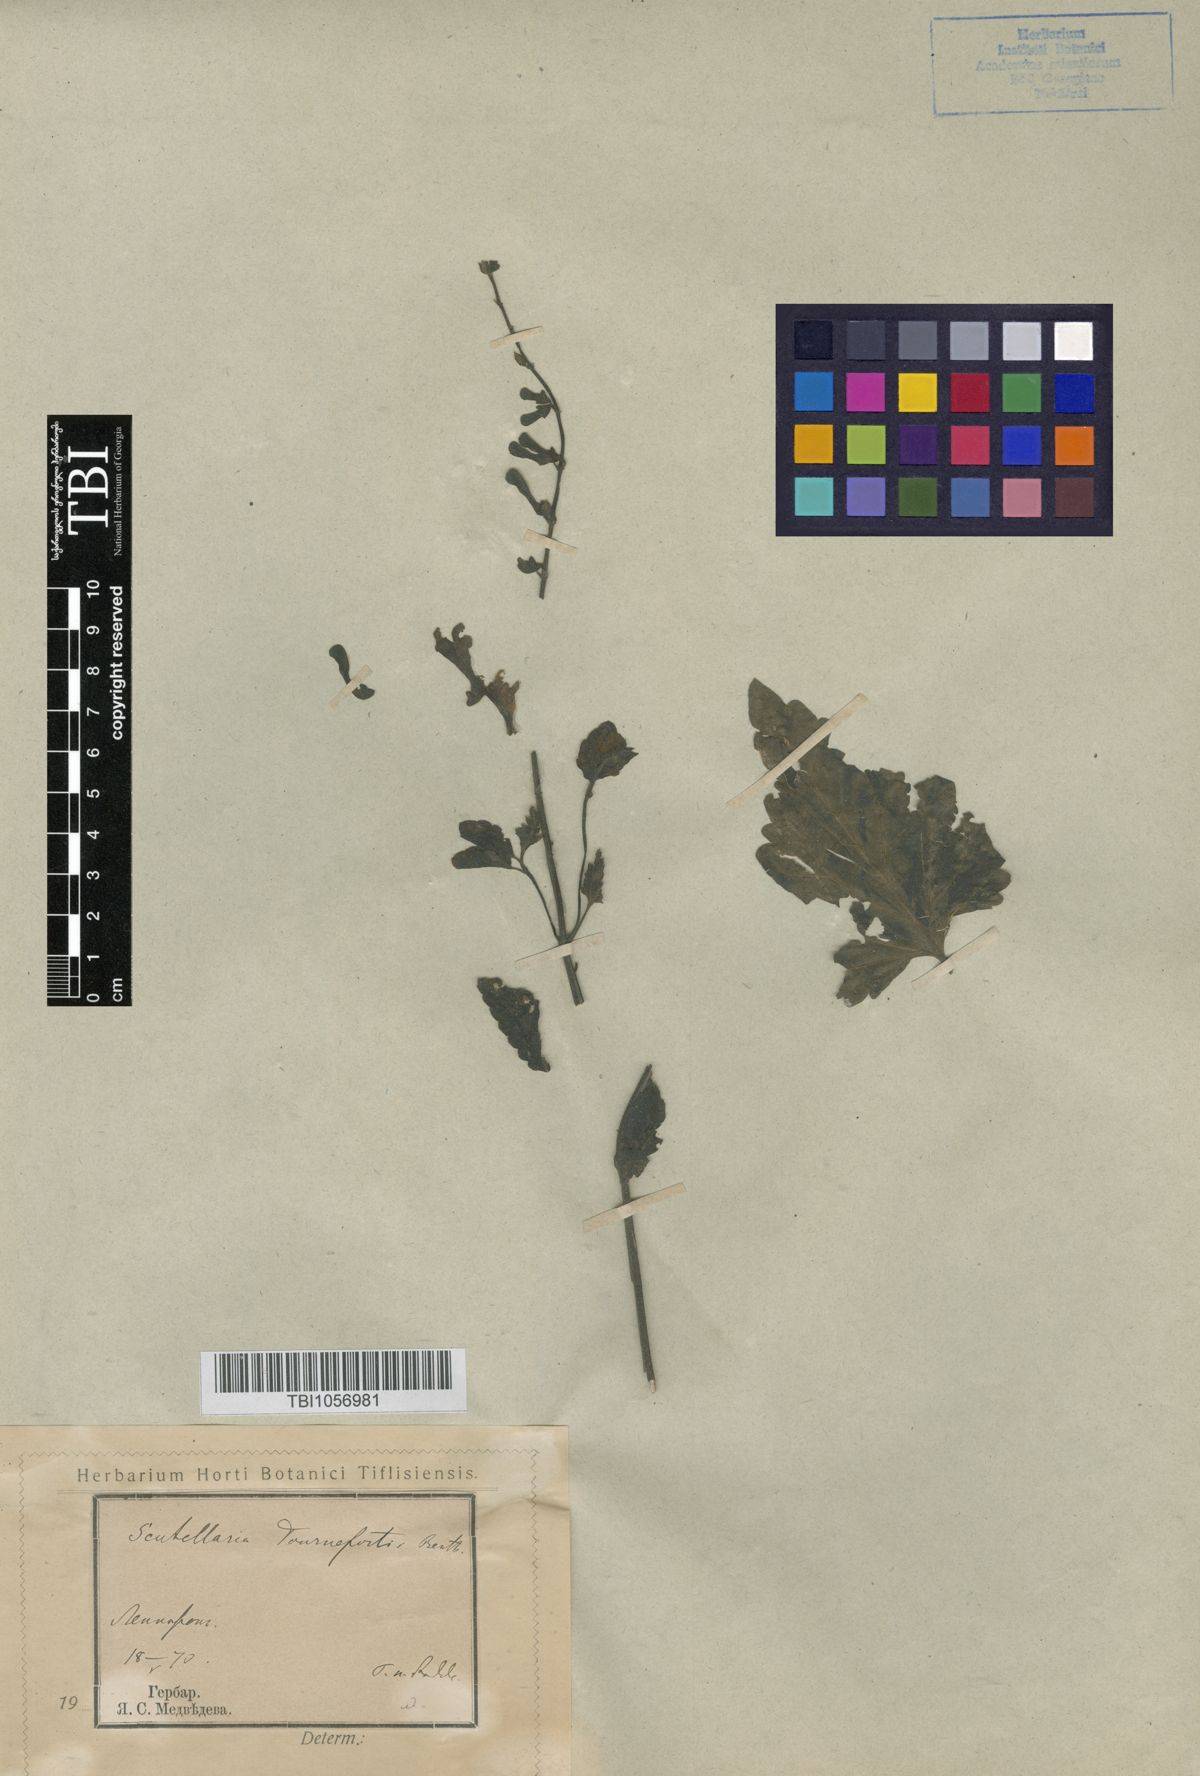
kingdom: Plantae
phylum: Tracheophyta
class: Magnoliopsida
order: Lamiales
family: Lamiaceae
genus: Scutellaria
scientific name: Scutellaria tournefortii
